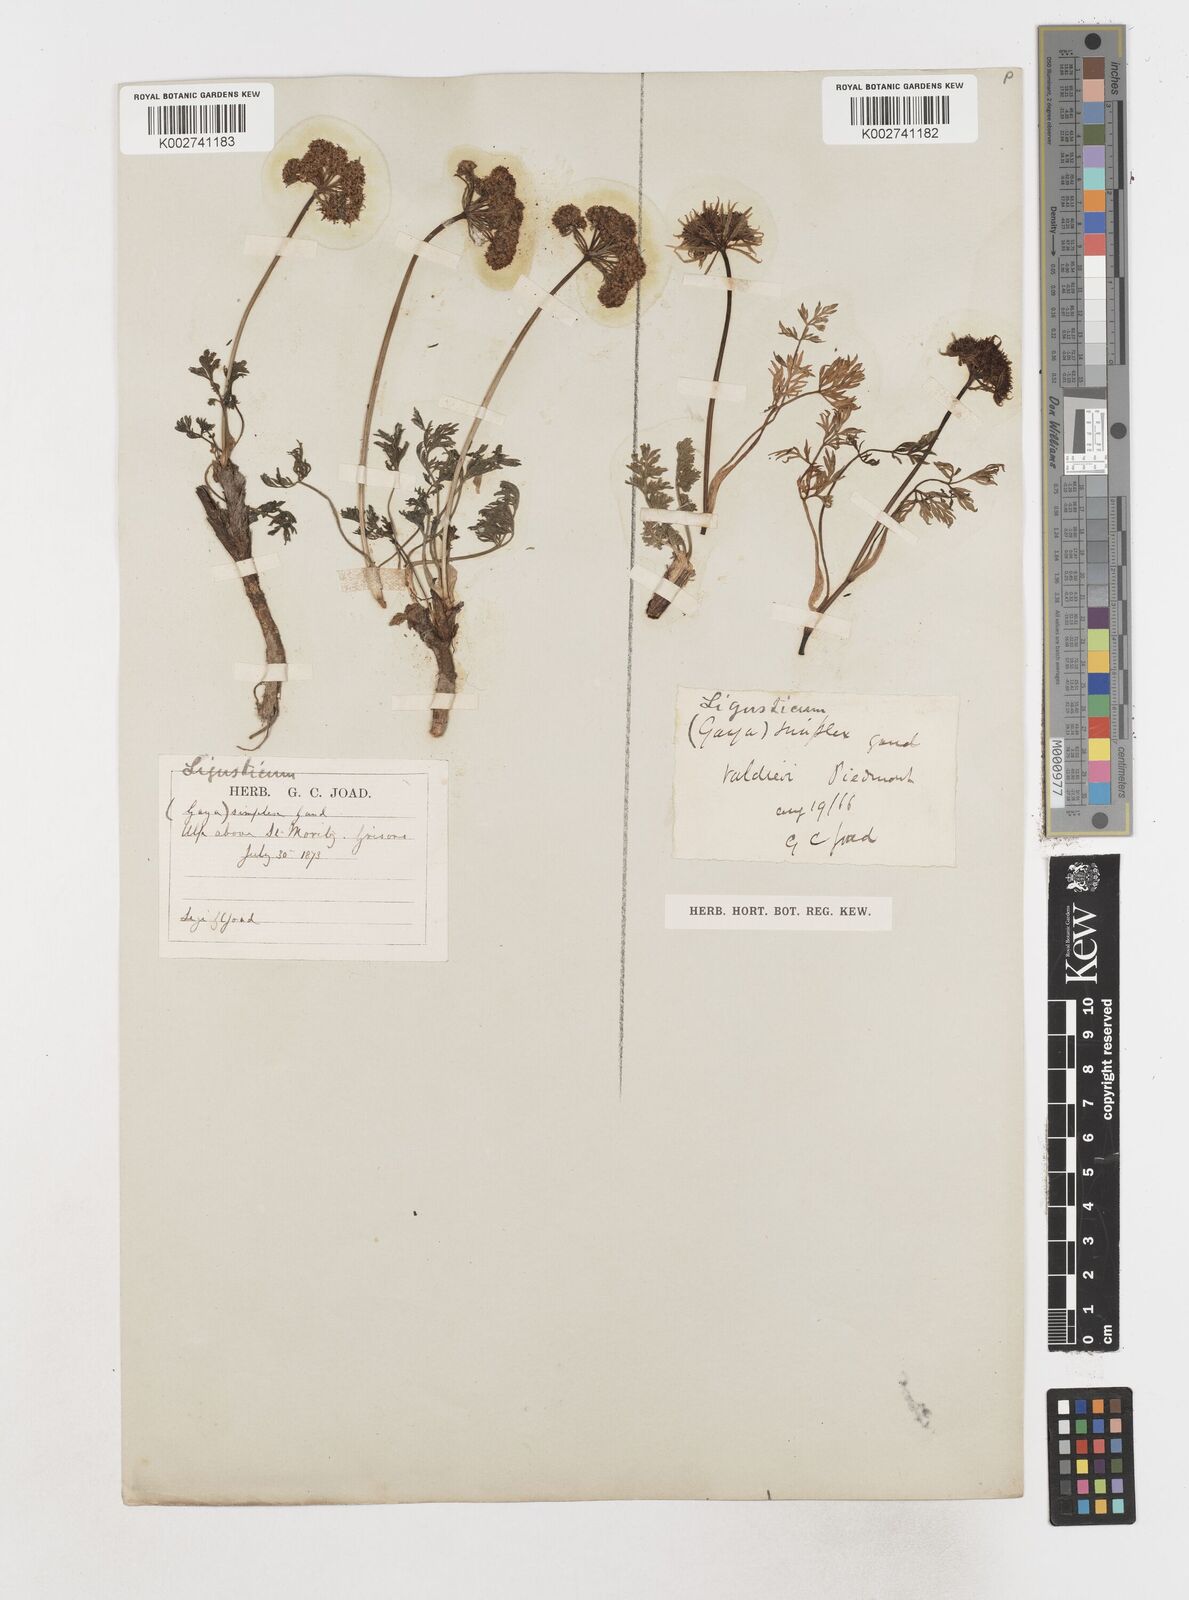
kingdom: Plantae
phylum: Tracheophyta
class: Magnoliopsida
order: Apiales
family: Apiaceae
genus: Pachypleurum
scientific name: Pachypleurum mutellinoides
